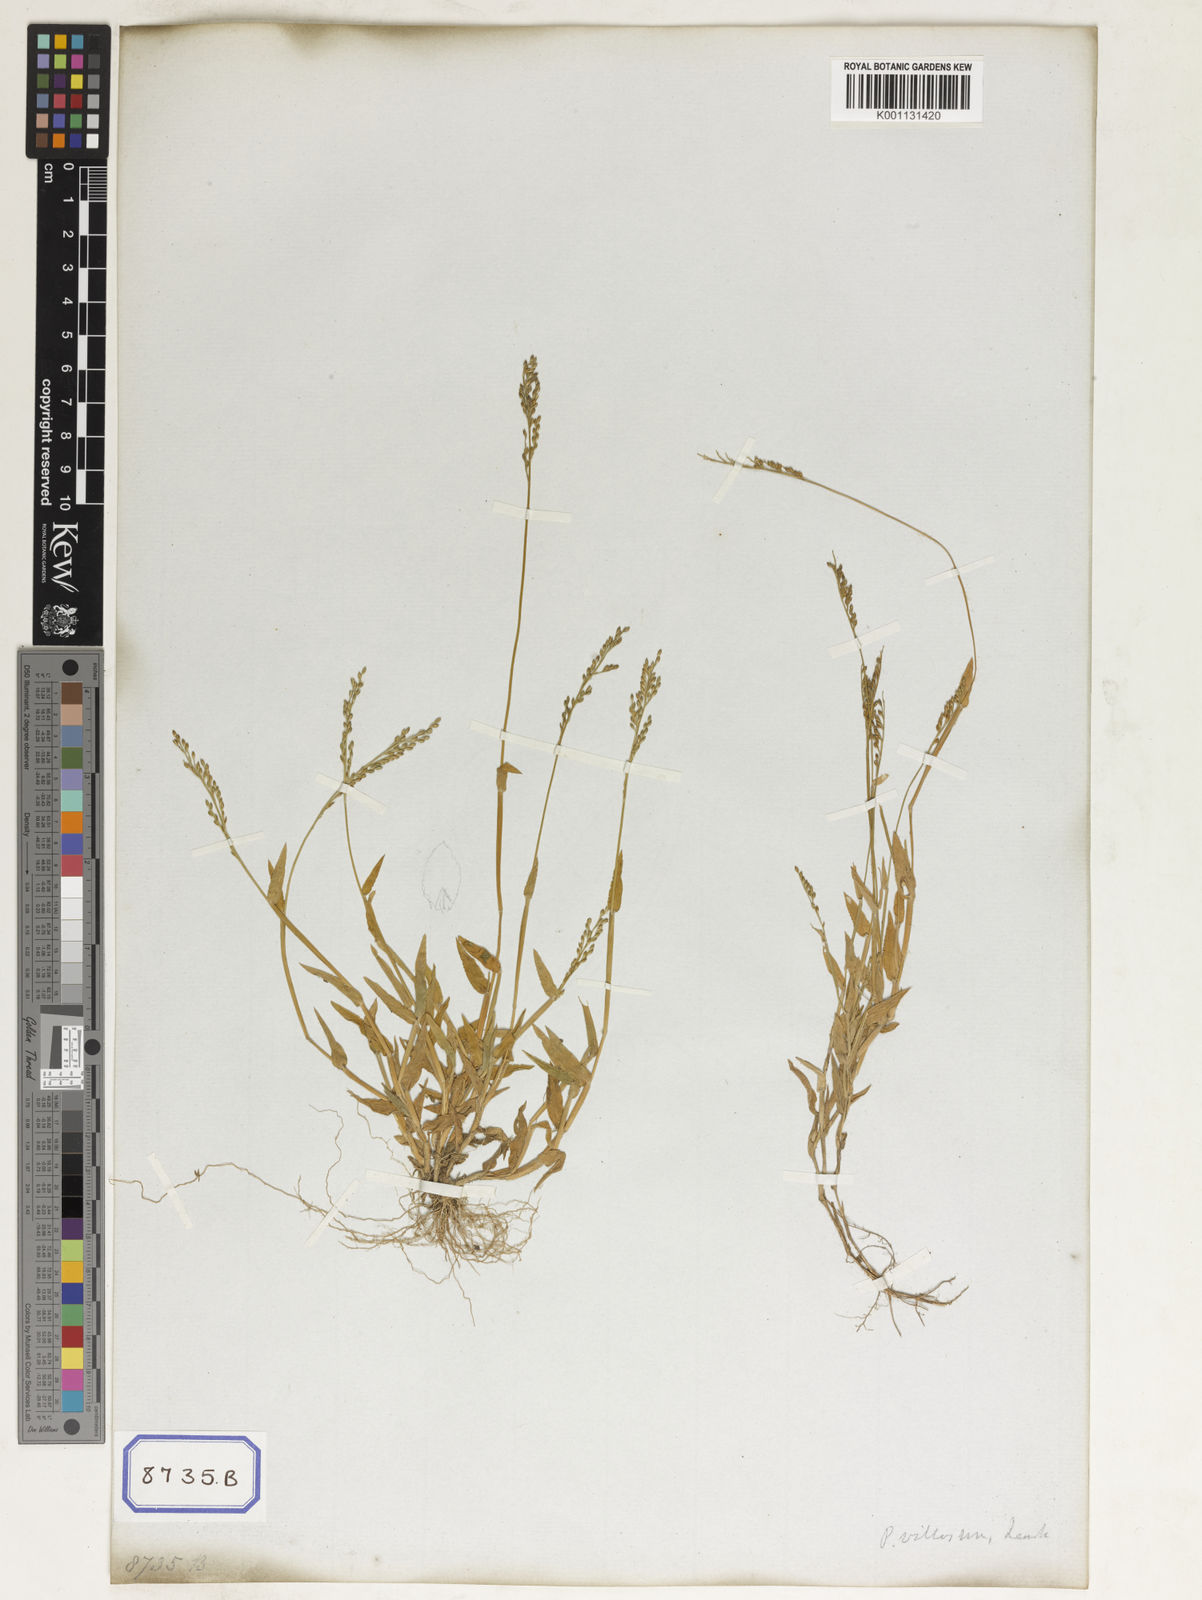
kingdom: Plantae
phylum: Tracheophyta
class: Liliopsida
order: Poales
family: Poaceae
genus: Panicum
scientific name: Panicum
